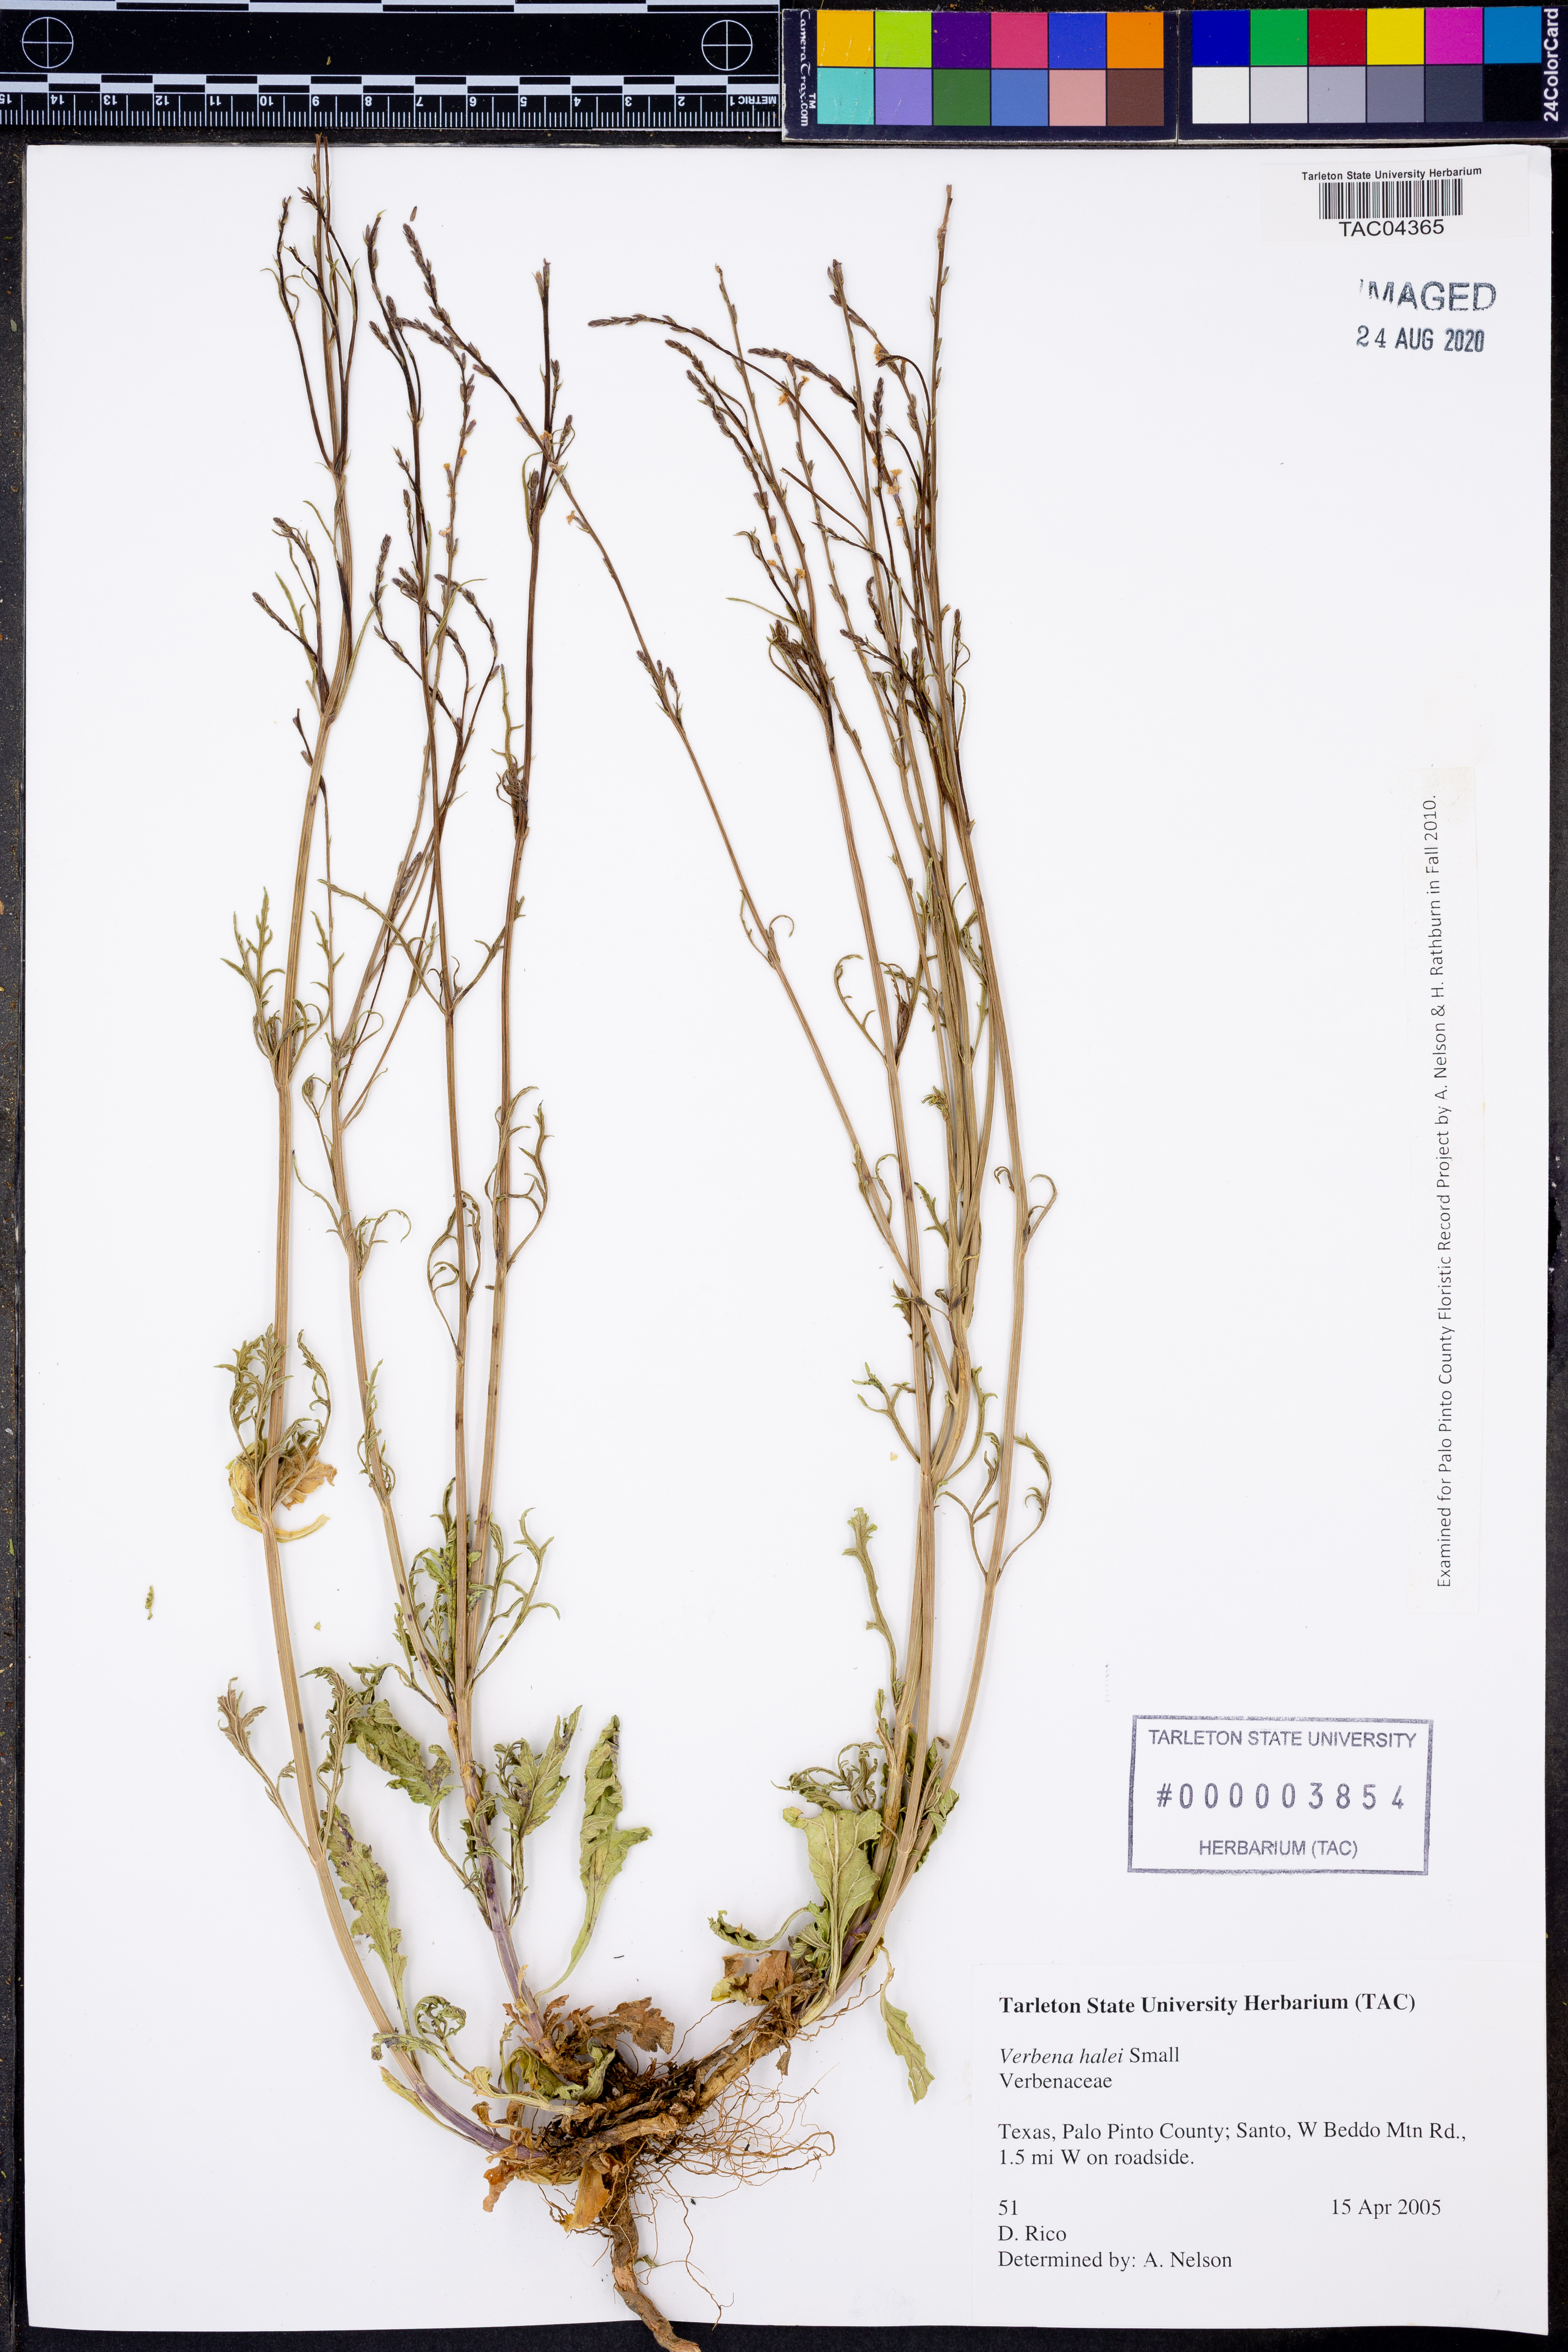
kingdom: Plantae
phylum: Tracheophyta
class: Magnoliopsida
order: Lamiales
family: Verbenaceae
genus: Verbena
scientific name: Verbena halei
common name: Texas vervain
